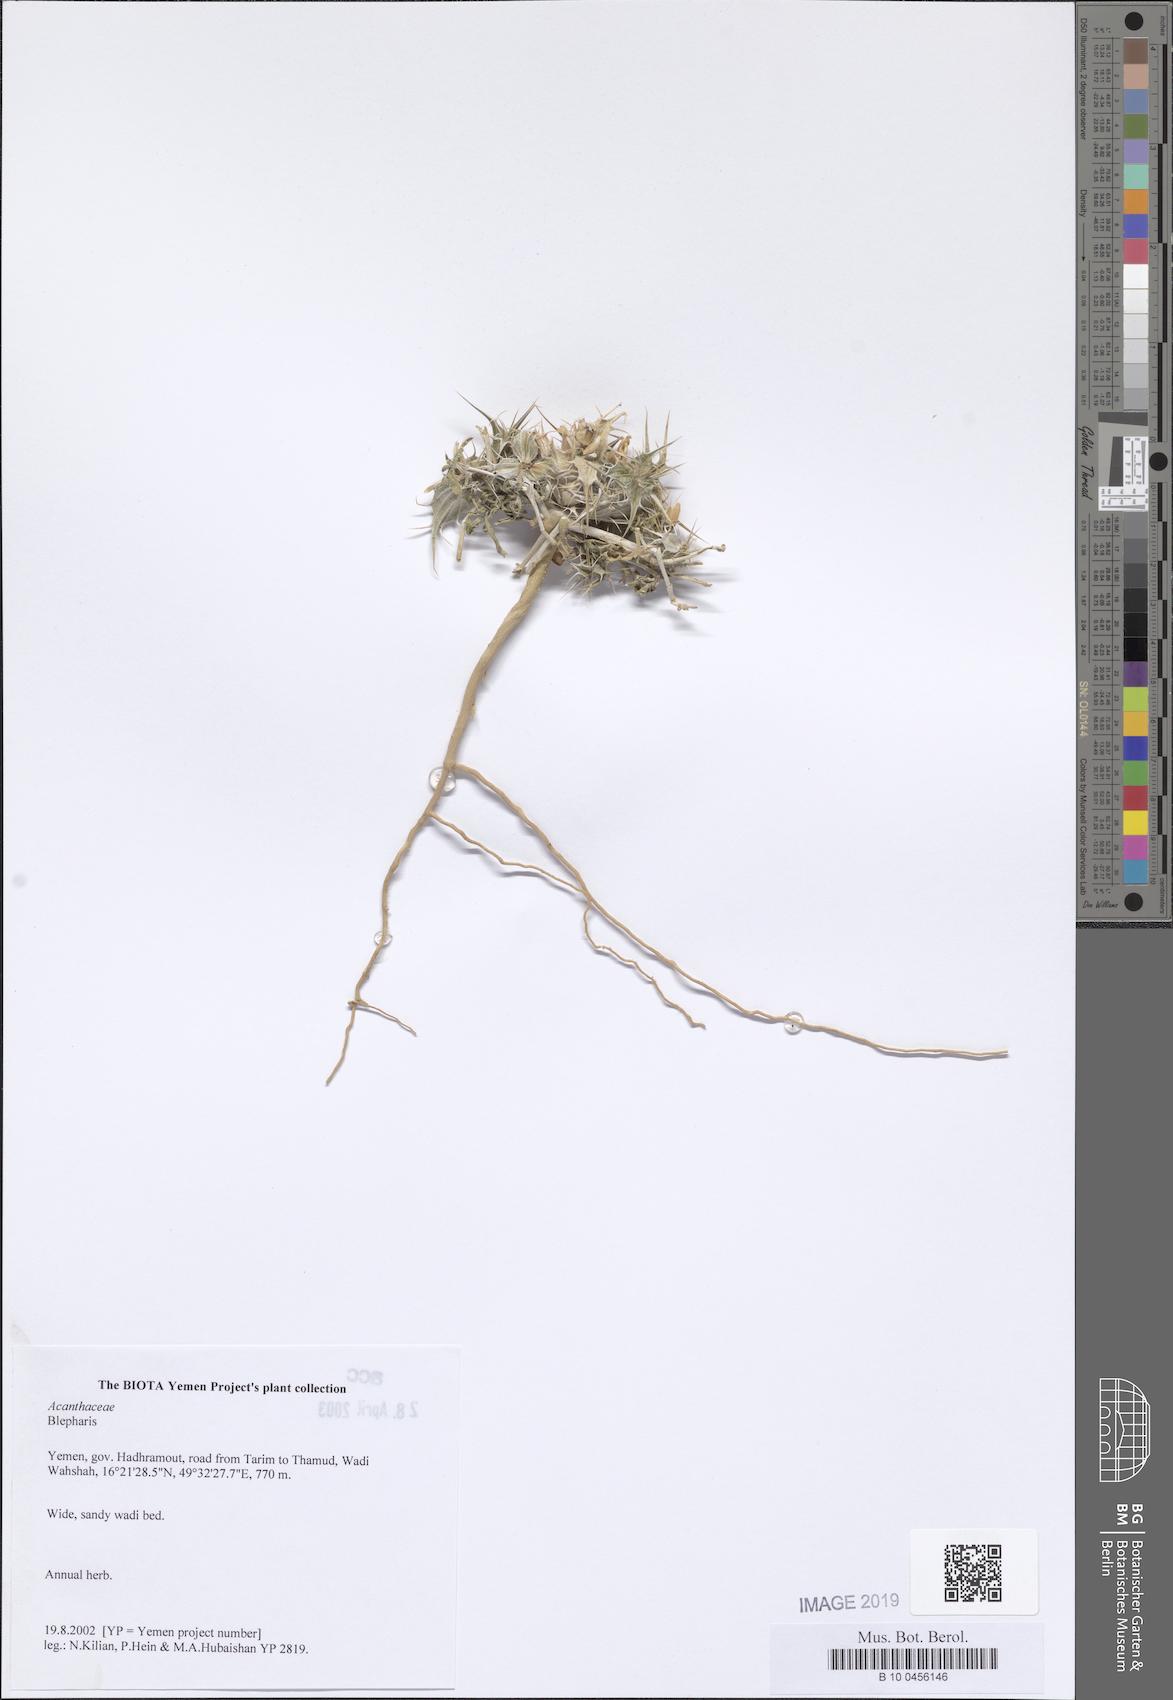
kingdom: Plantae
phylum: Tracheophyta
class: Magnoliopsida
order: Lamiales
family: Acanthaceae
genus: Blepharis
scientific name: Blepharis
